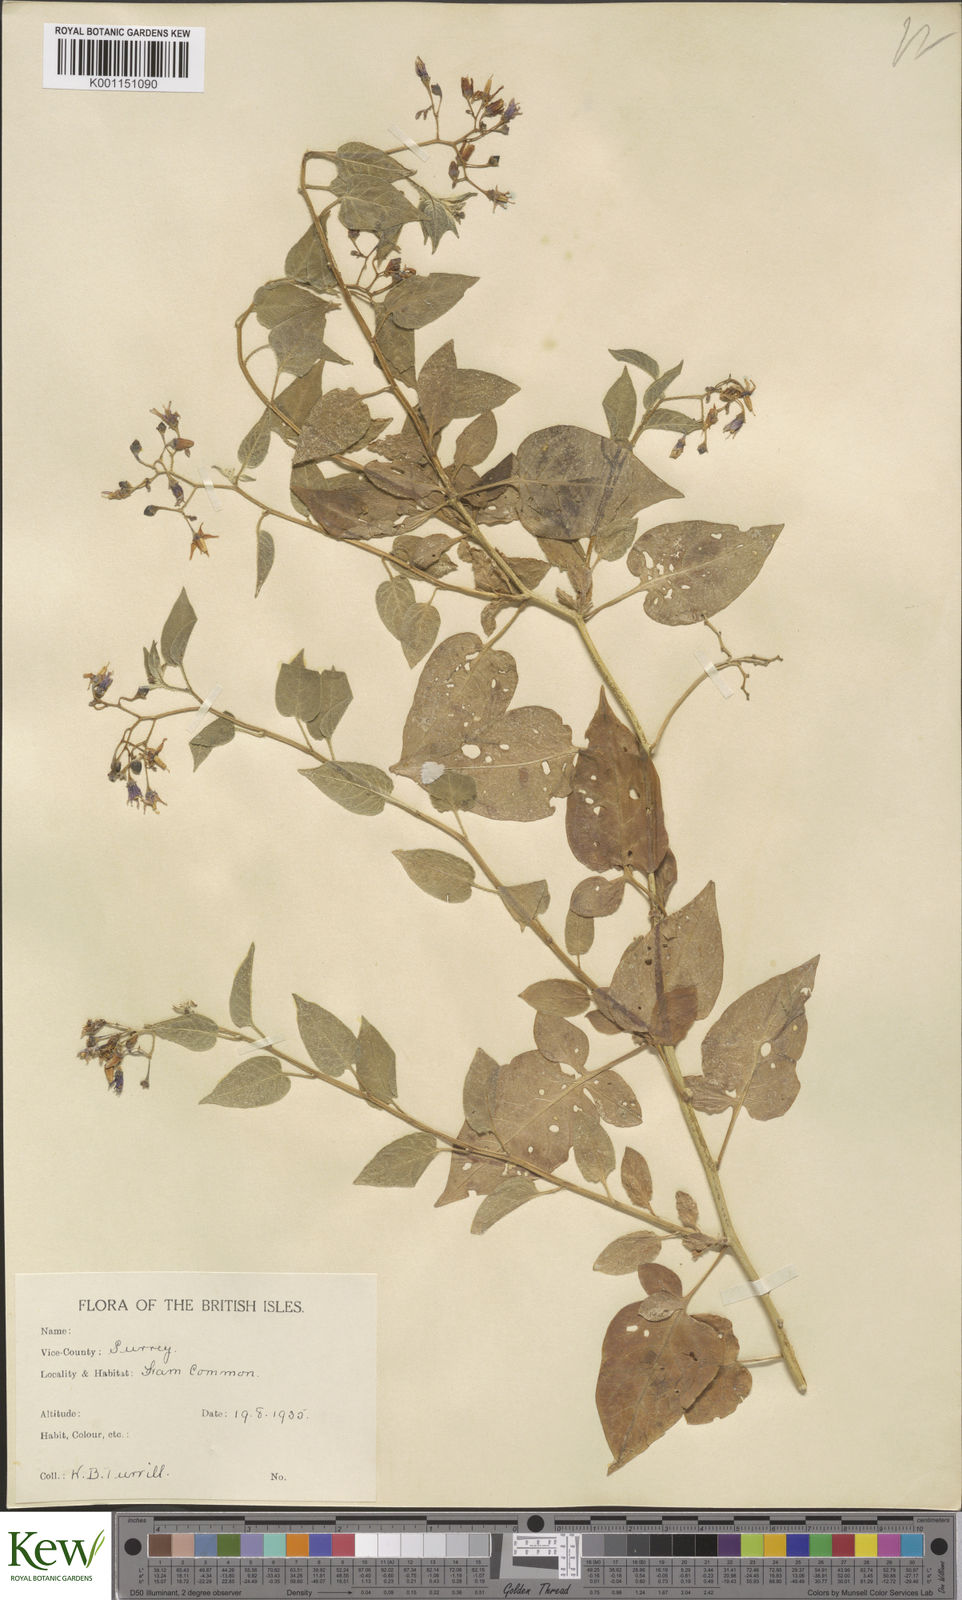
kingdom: Plantae
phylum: Tracheophyta
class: Magnoliopsida
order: Solanales
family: Solanaceae
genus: Solanum
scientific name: Solanum dulcamara
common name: Climbing nightshade
